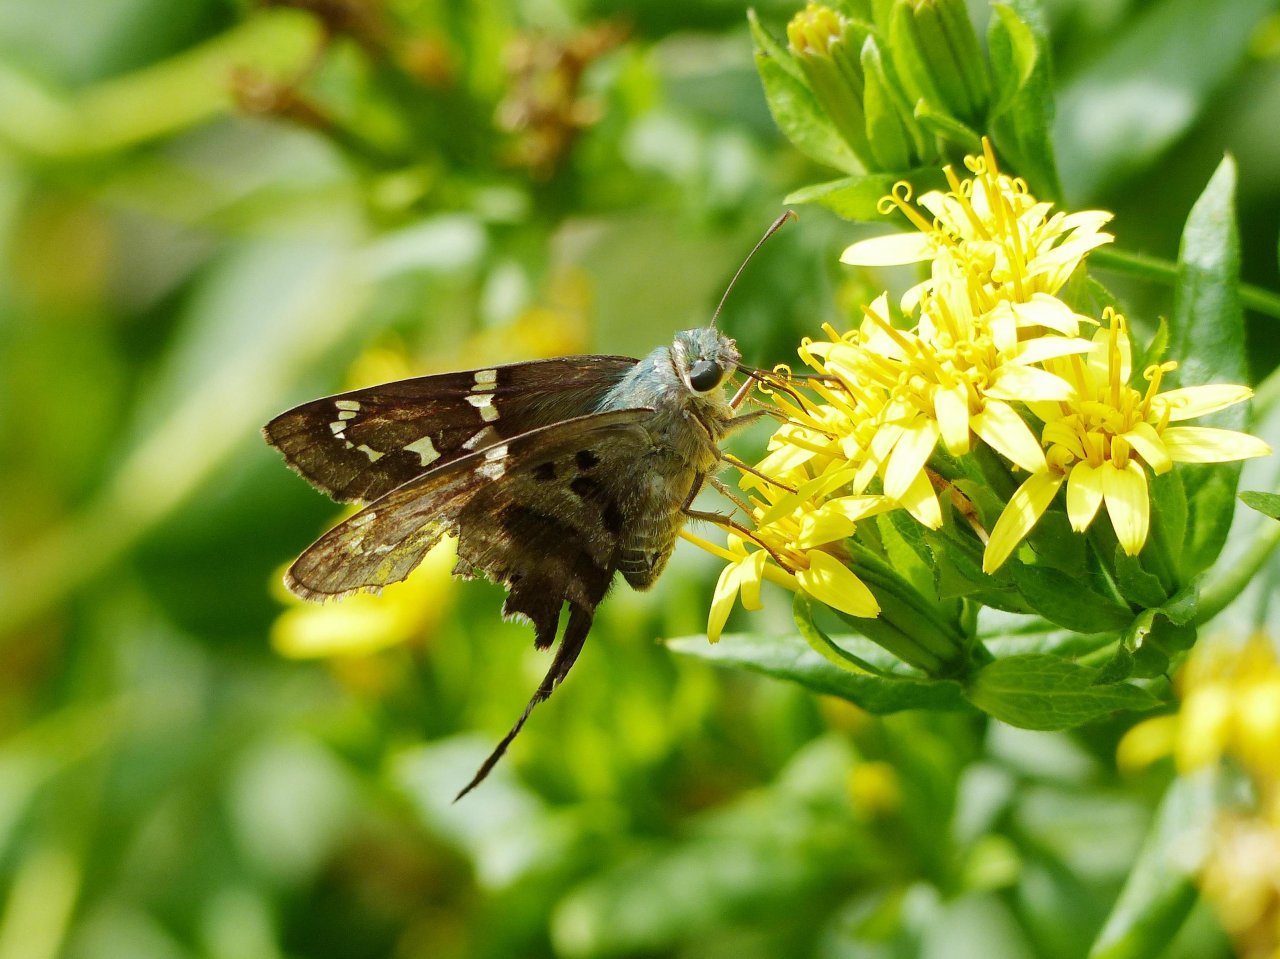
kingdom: Animalia
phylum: Arthropoda
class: Insecta
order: Lepidoptera
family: Hesperiidae
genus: Urbanus
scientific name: Urbanus proteus
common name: Long-tailed Skipper
